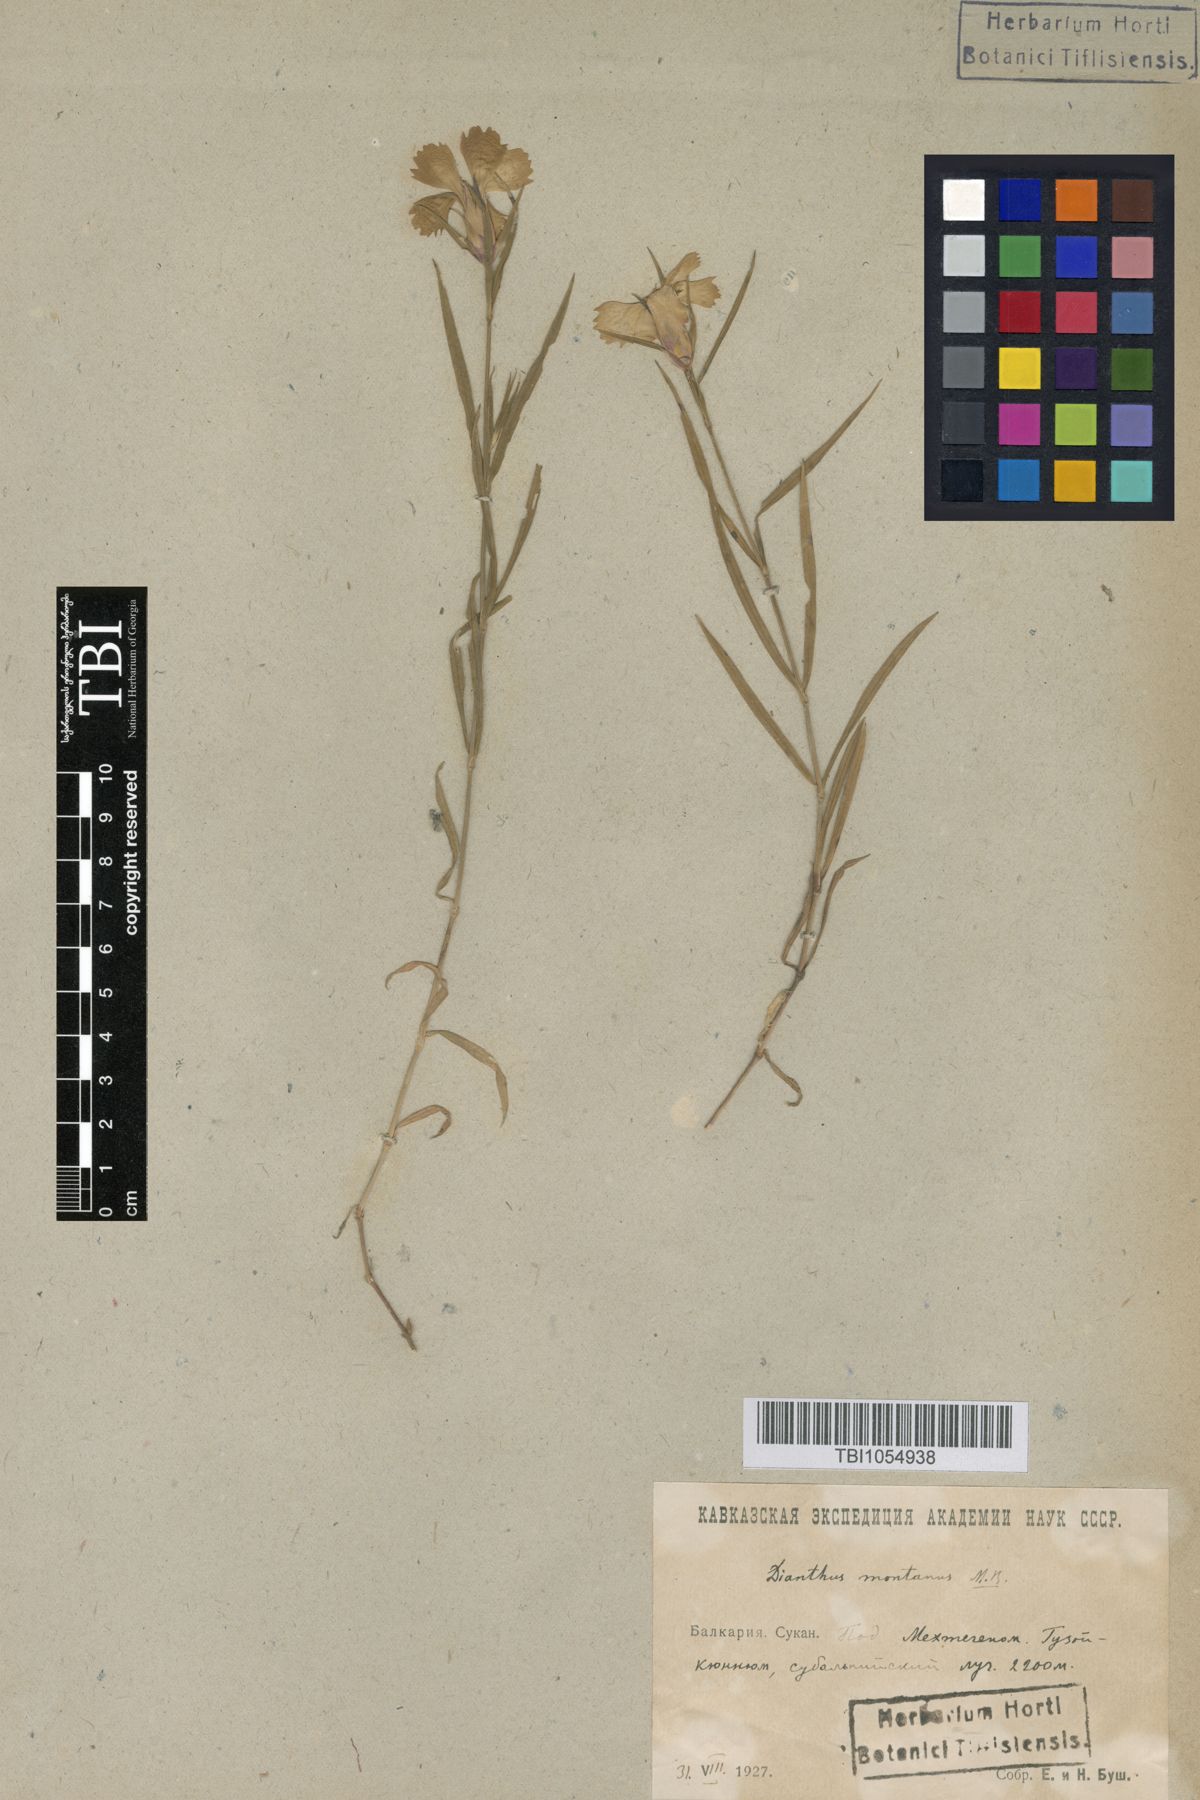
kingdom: Plantae
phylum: Tracheophyta
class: Magnoliopsida
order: Caryophyllales
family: Caryophyllaceae
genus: Dianthus
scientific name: Dianthus caucaseus
